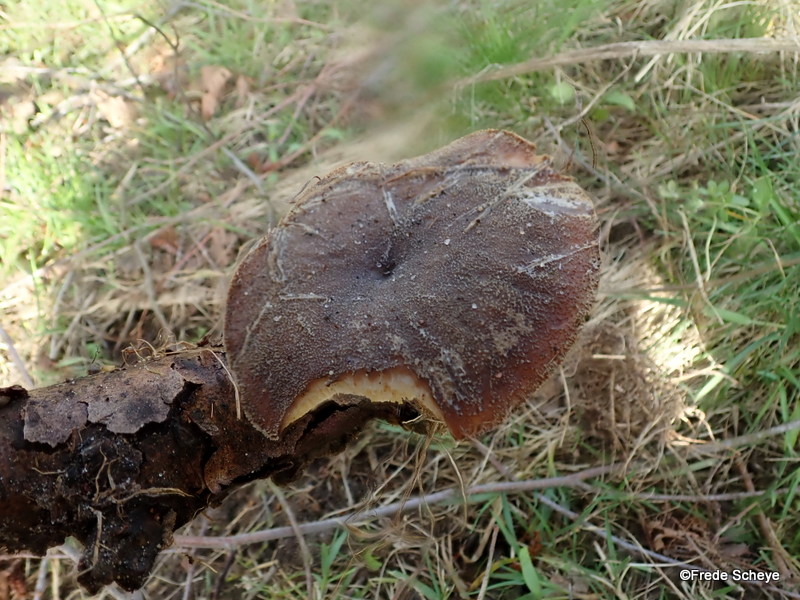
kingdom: Fungi
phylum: Basidiomycota
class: Agaricomycetes
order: Polyporales
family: Polyporaceae
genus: Lentinus
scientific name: Lentinus brumalis
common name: vinter-stilkporesvamp
